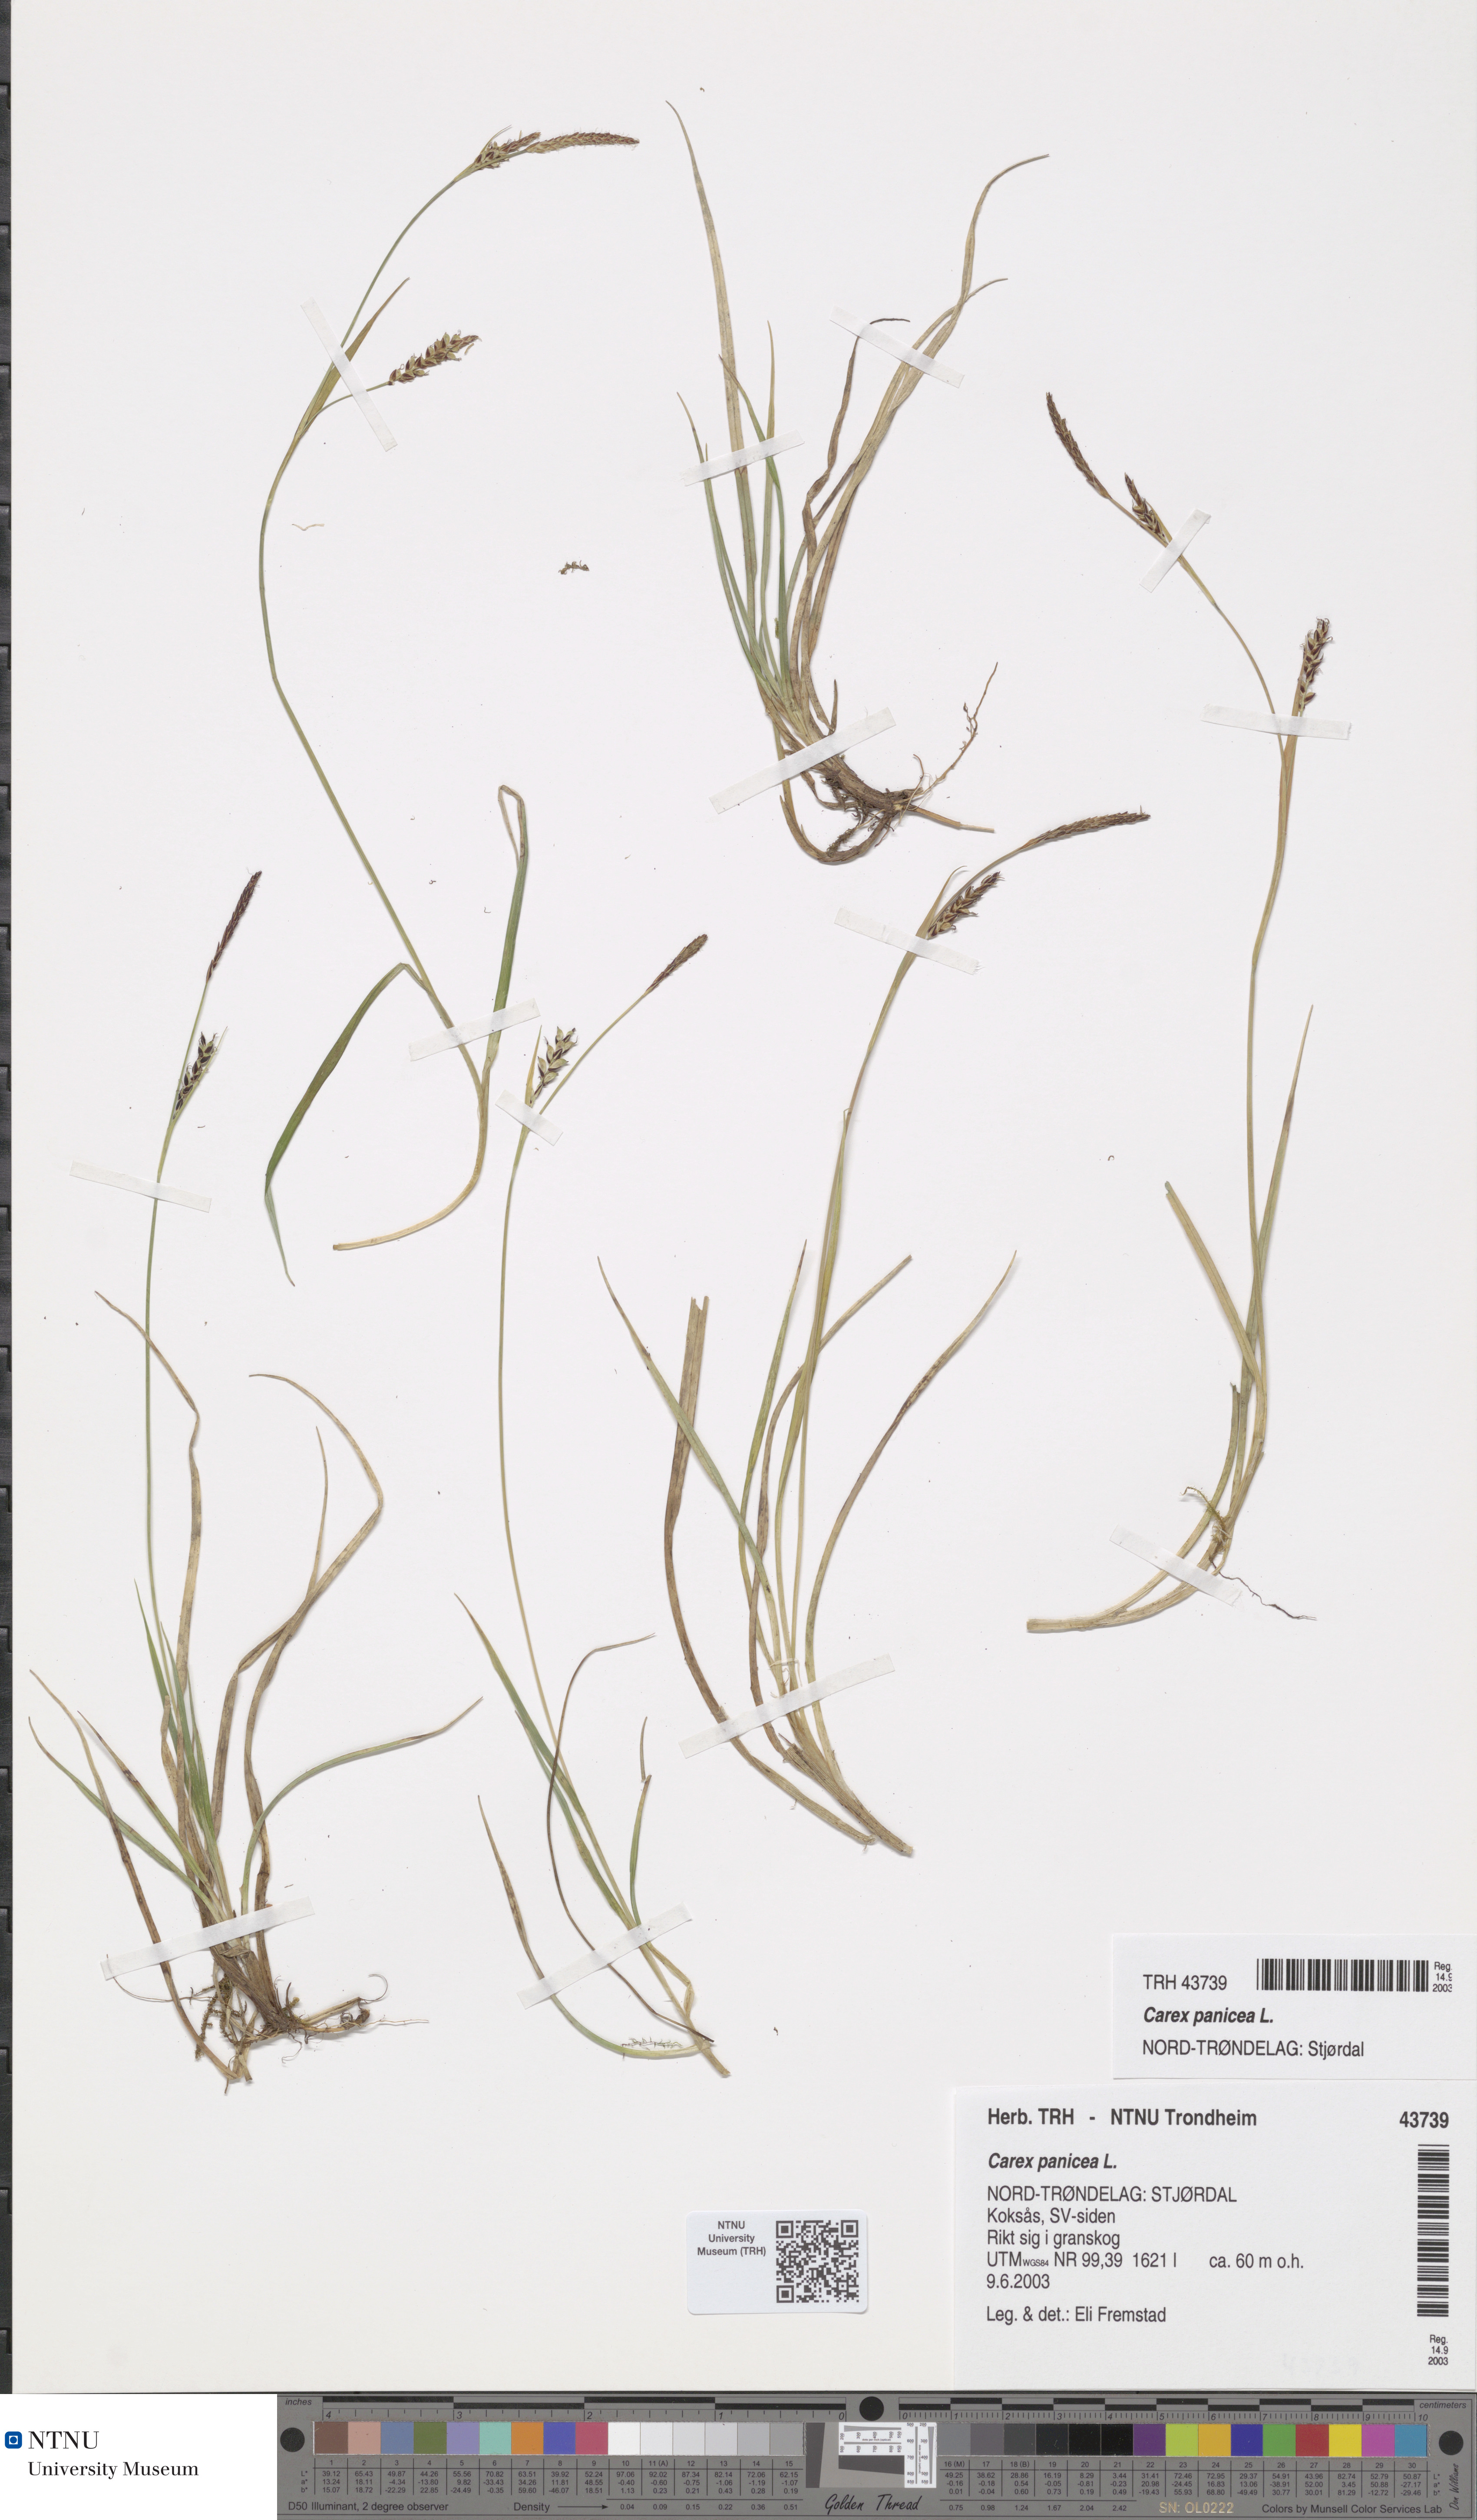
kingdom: Plantae
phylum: Tracheophyta
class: Liliopsida
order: Poales
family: Cyperaceae
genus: Carex
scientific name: Carex panicea
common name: Carnation sedge
